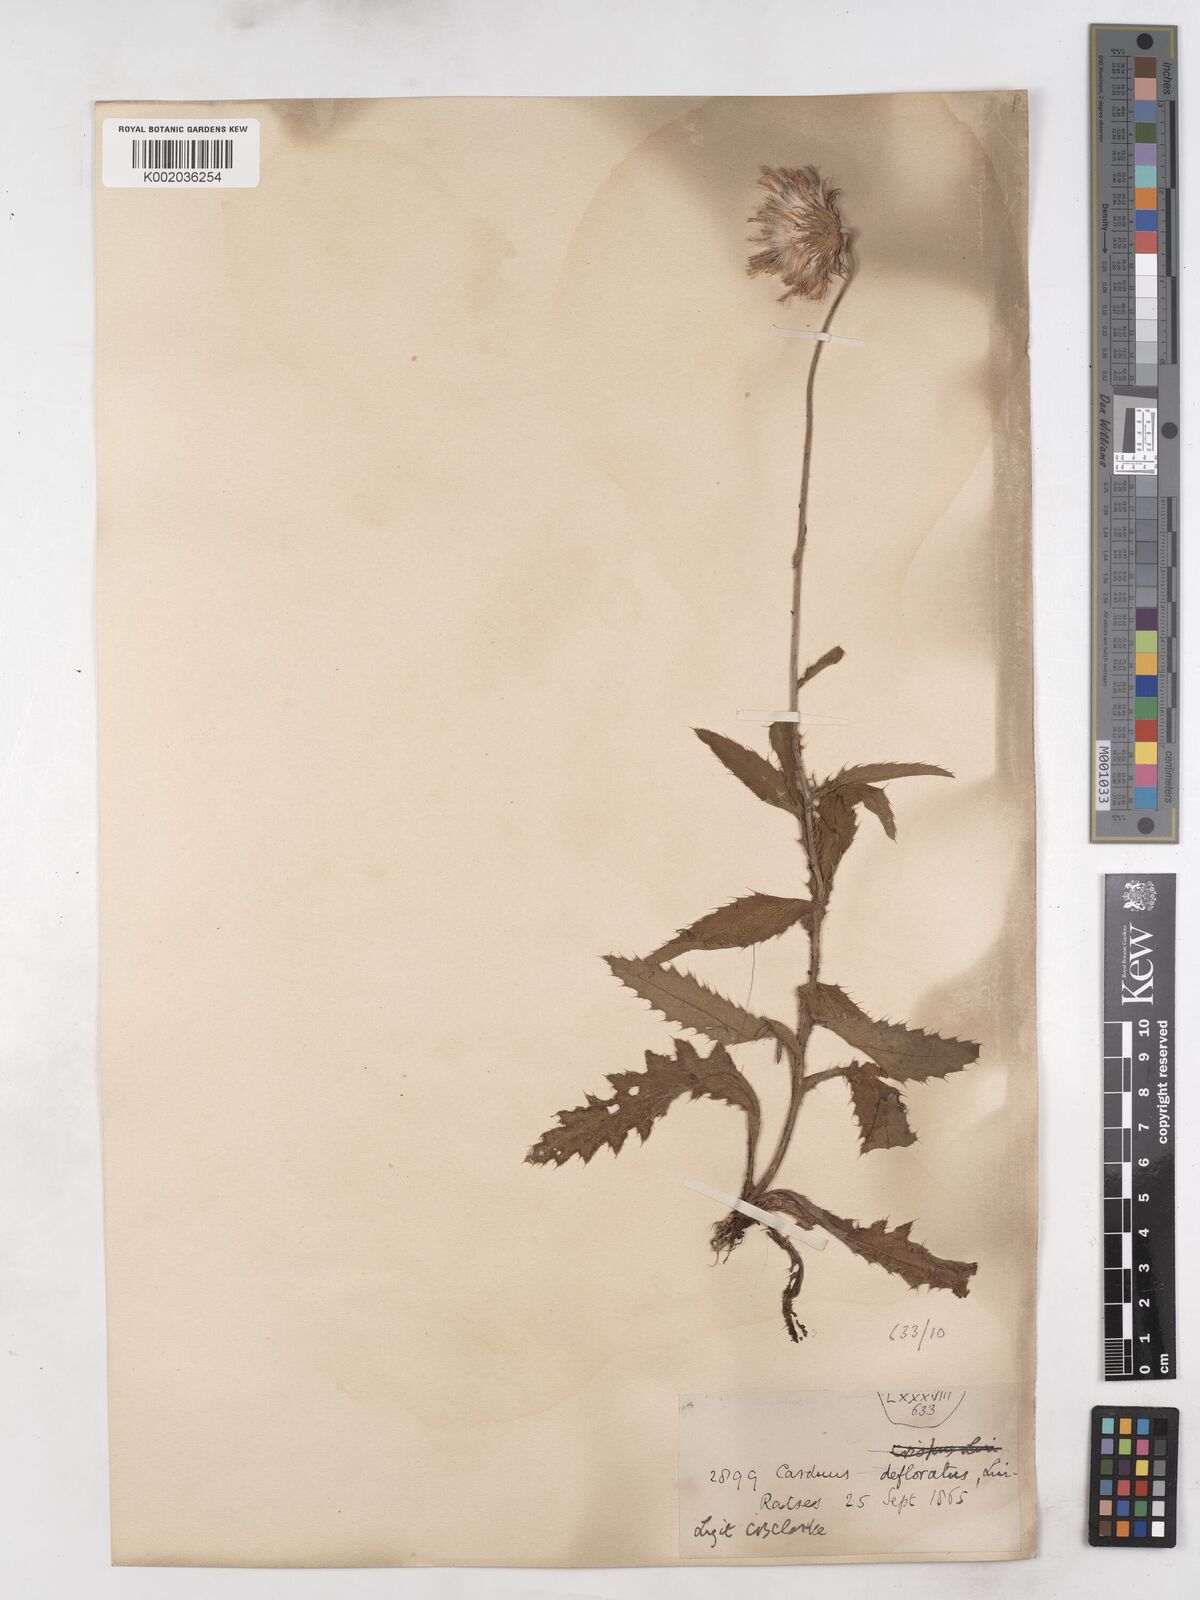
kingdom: Plantae
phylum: Tracheophyta
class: Magnoliopsida
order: Asterales
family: Asteraceae
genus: Carduus
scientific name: Carduus defloratus
